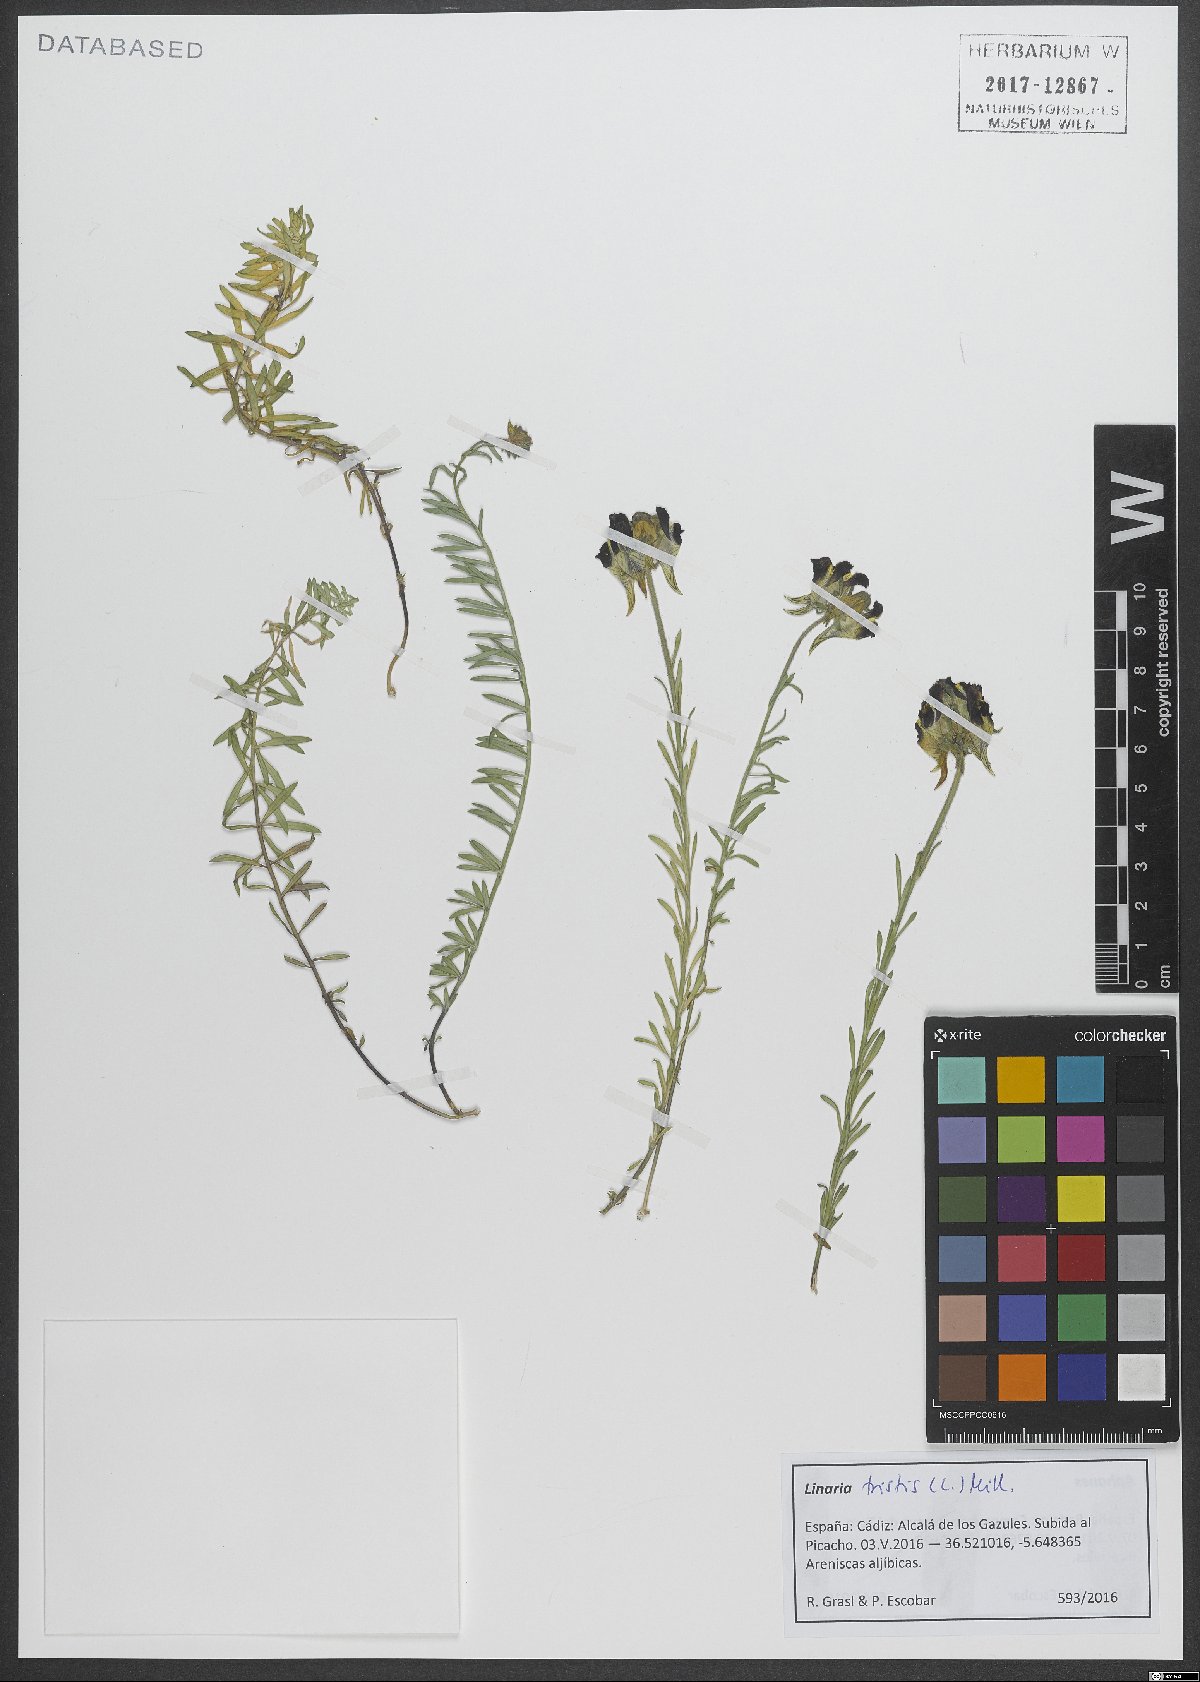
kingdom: Plantae
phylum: Tracheophyta
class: Magnoliopsida
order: Lamiales
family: Plantaginaceae
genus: Linaria
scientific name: Linaria tristis
